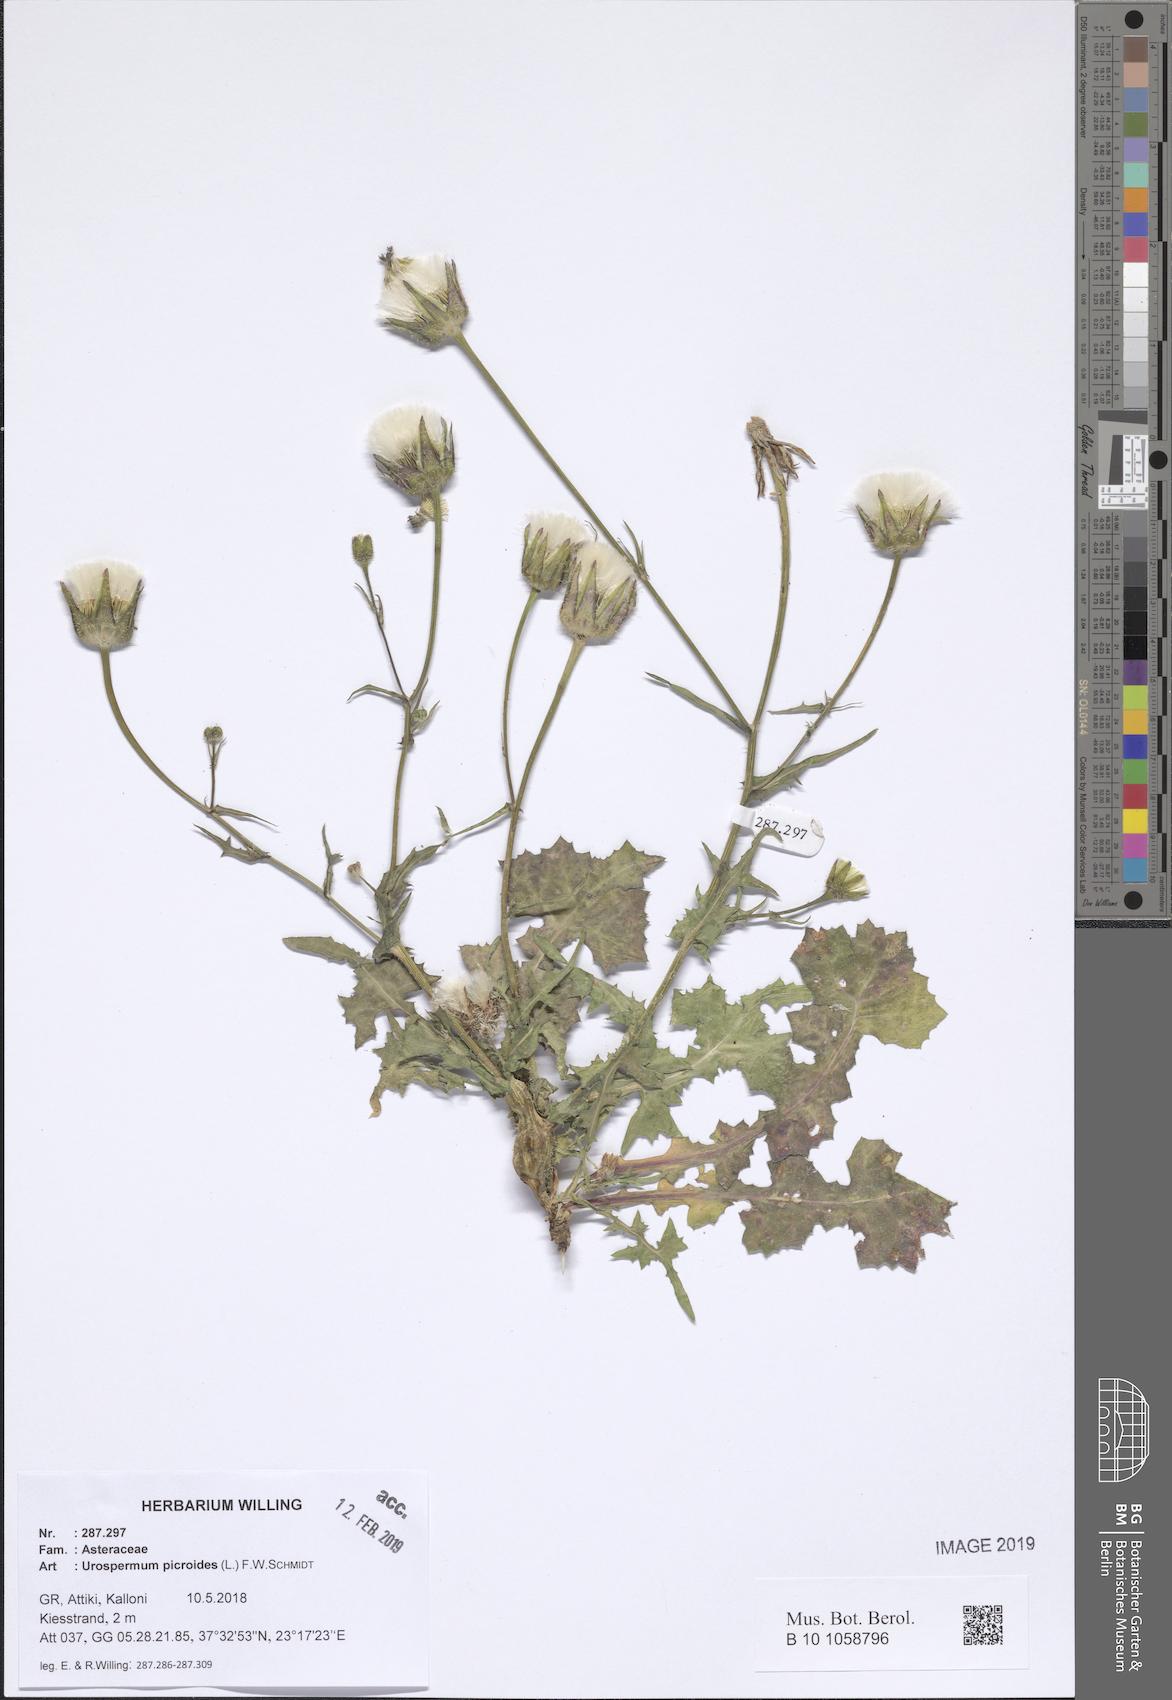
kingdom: Plantae
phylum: Tracheophyta
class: Magnoliopsida
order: Asterales
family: Asteraceae
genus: Urospermum
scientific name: Urospermum picroides
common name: False hawkbit
